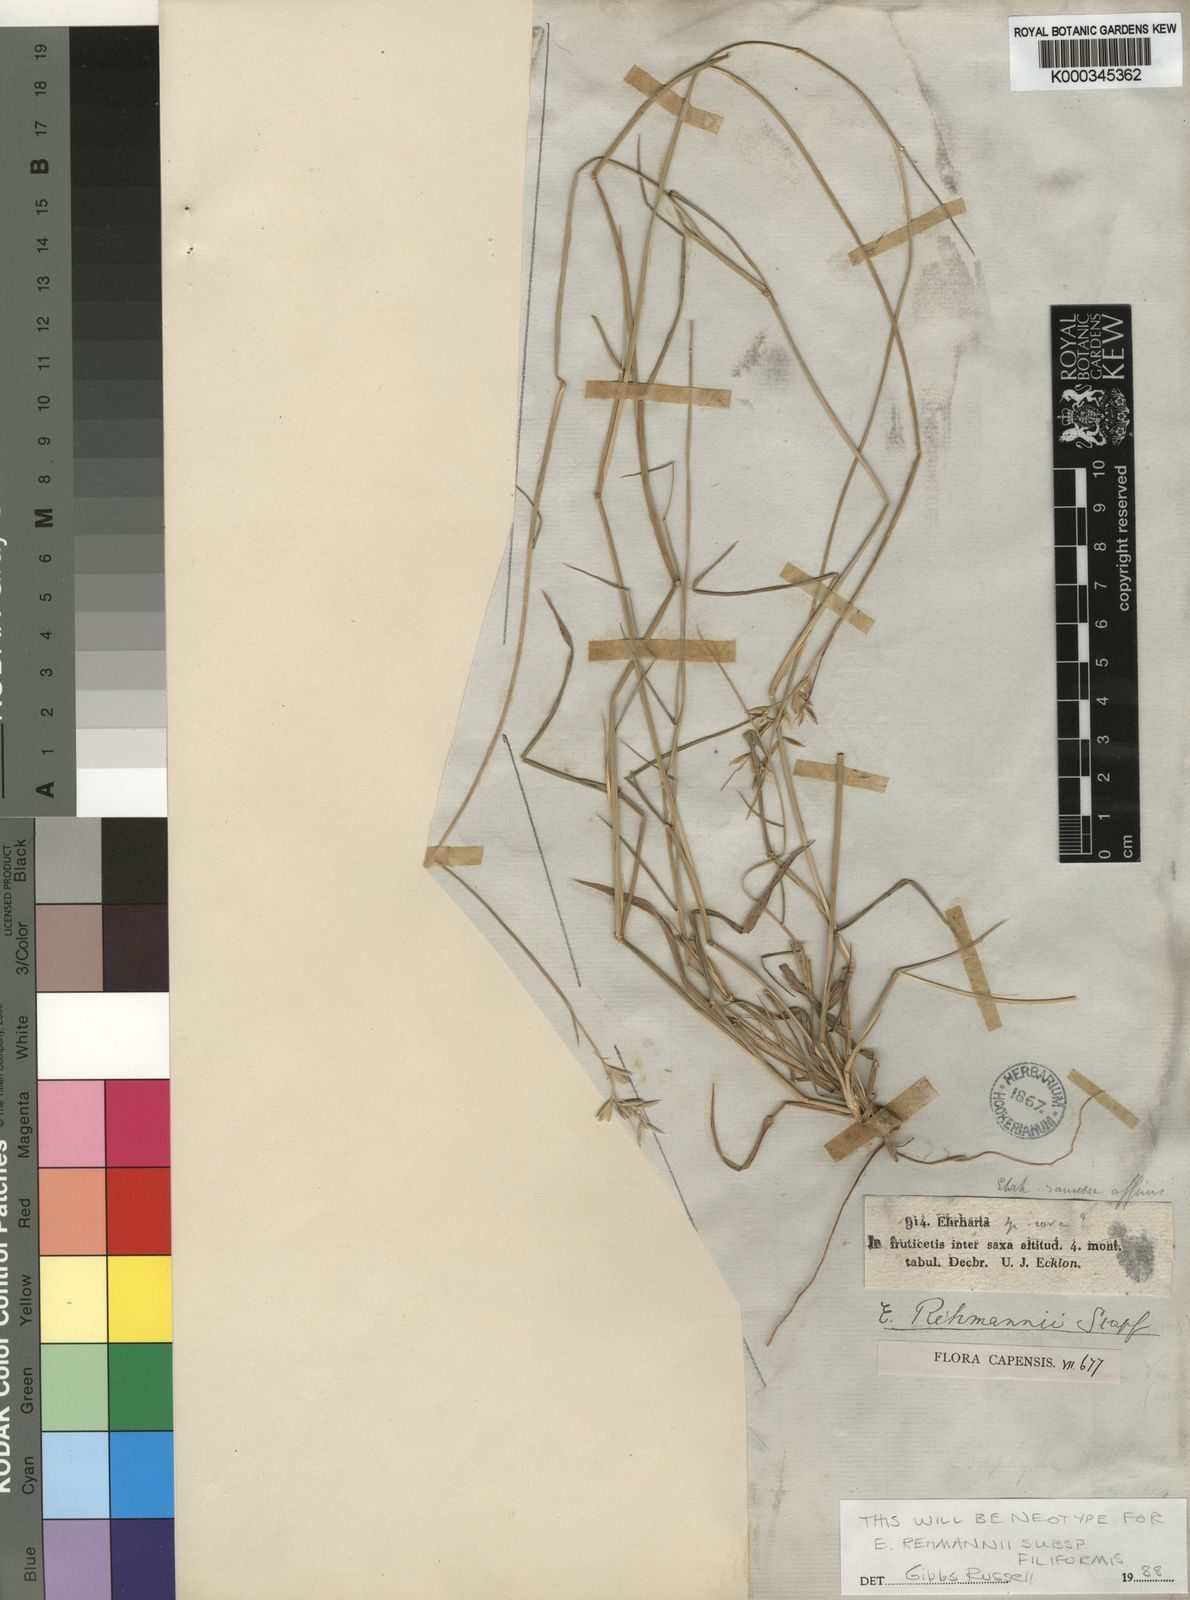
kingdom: Plantae
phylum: Tracheophyta
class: Liliopsida
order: Poales
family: Poaceae
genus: Ehrharta
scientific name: Ehrharta rehmannii
